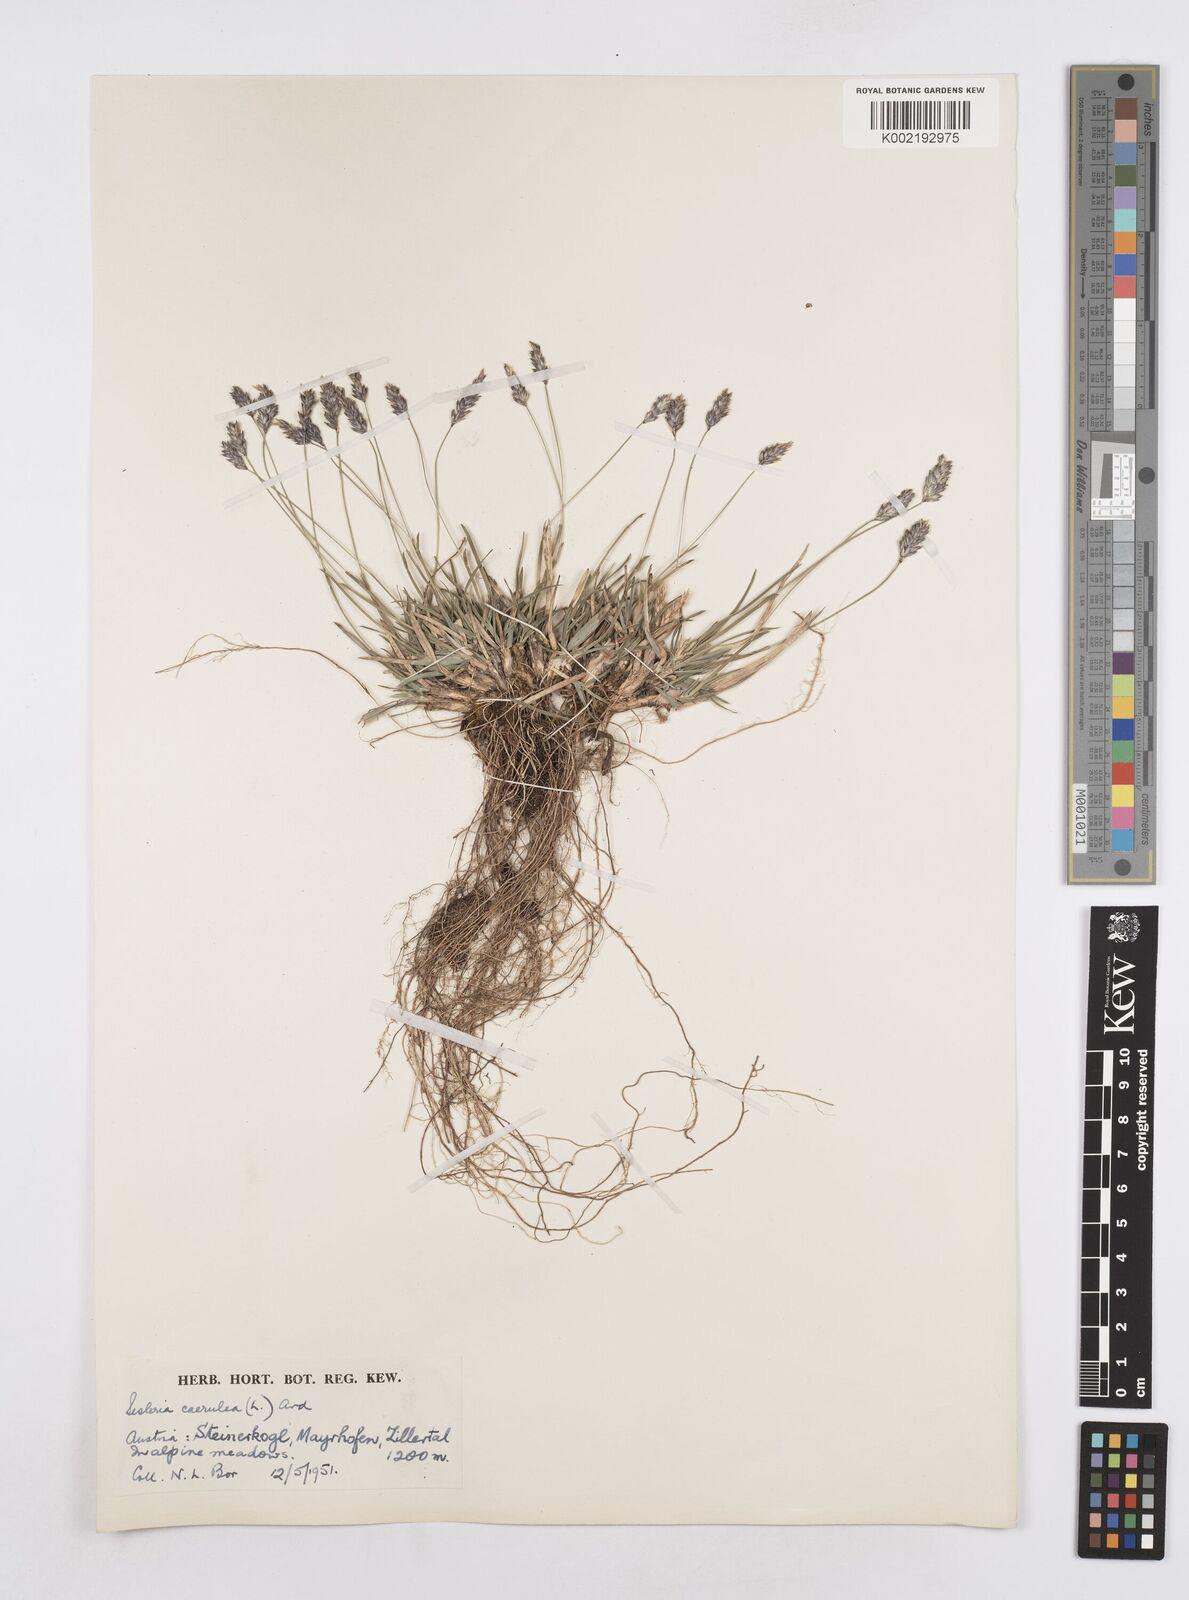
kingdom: Plantae
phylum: Tracheophyta
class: Liliopsida
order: Poales
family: Poaceae
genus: Sesleria
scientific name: Sesleria caerulea
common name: Blue moor-grass
